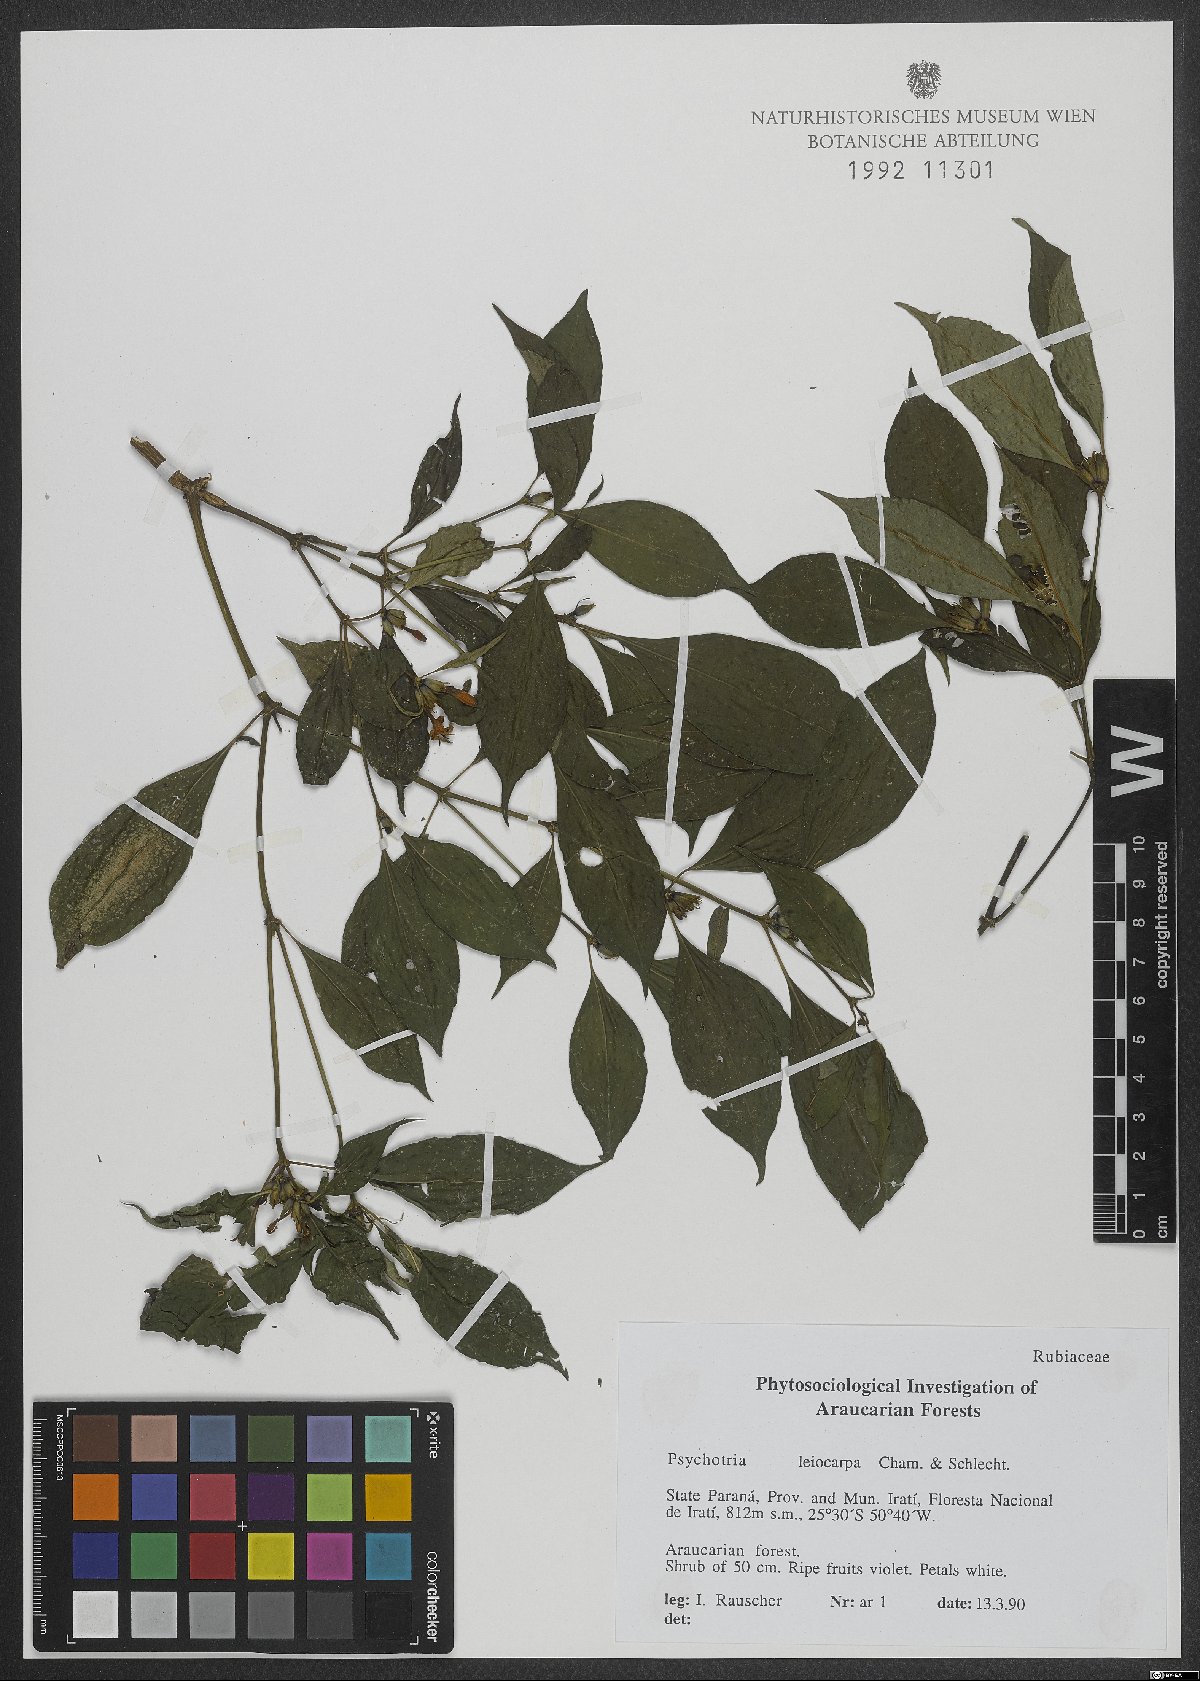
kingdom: Plantae
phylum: Tracheophyta
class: Magnoliopsida
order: Gentianales
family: Rubiaceae
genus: Psychotria
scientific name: Psychotria leiocarpa
